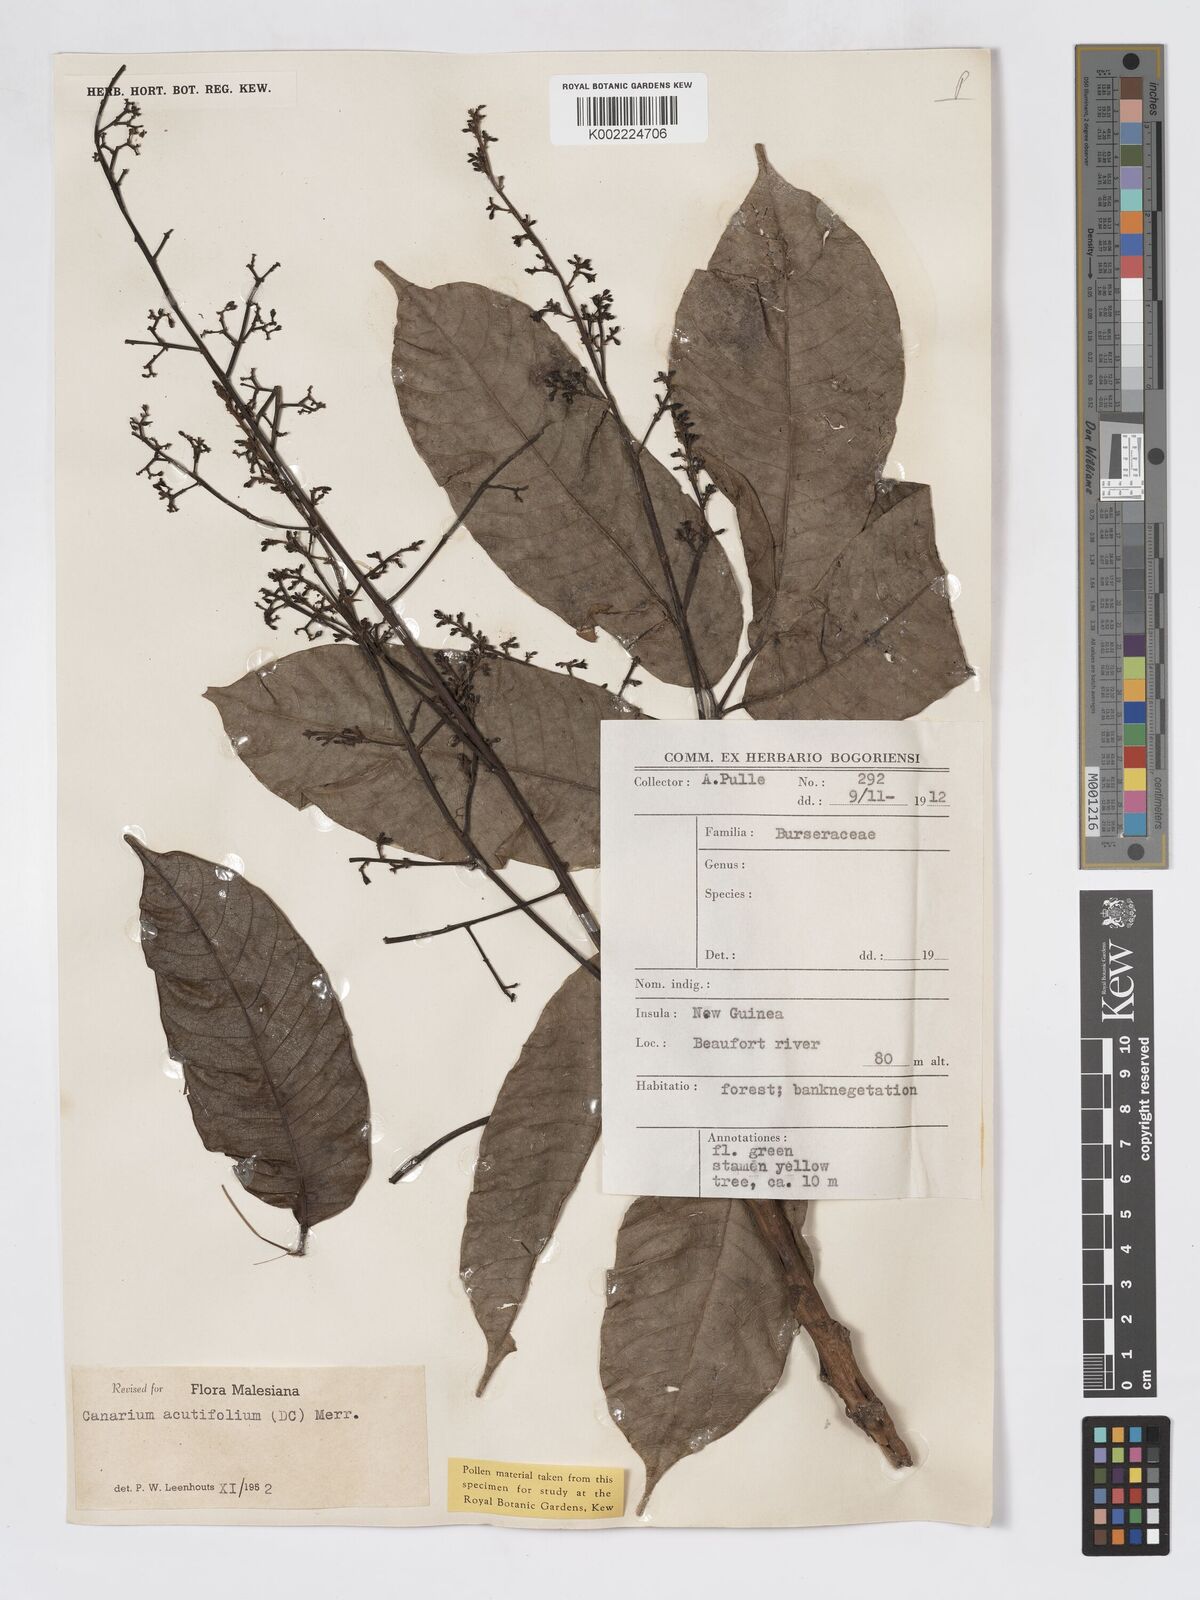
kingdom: Plantae
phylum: Tracheophyta
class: Magnoliopsida
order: Sapindales
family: Burseraceae
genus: Canarium
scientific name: Canarium acutifolium
